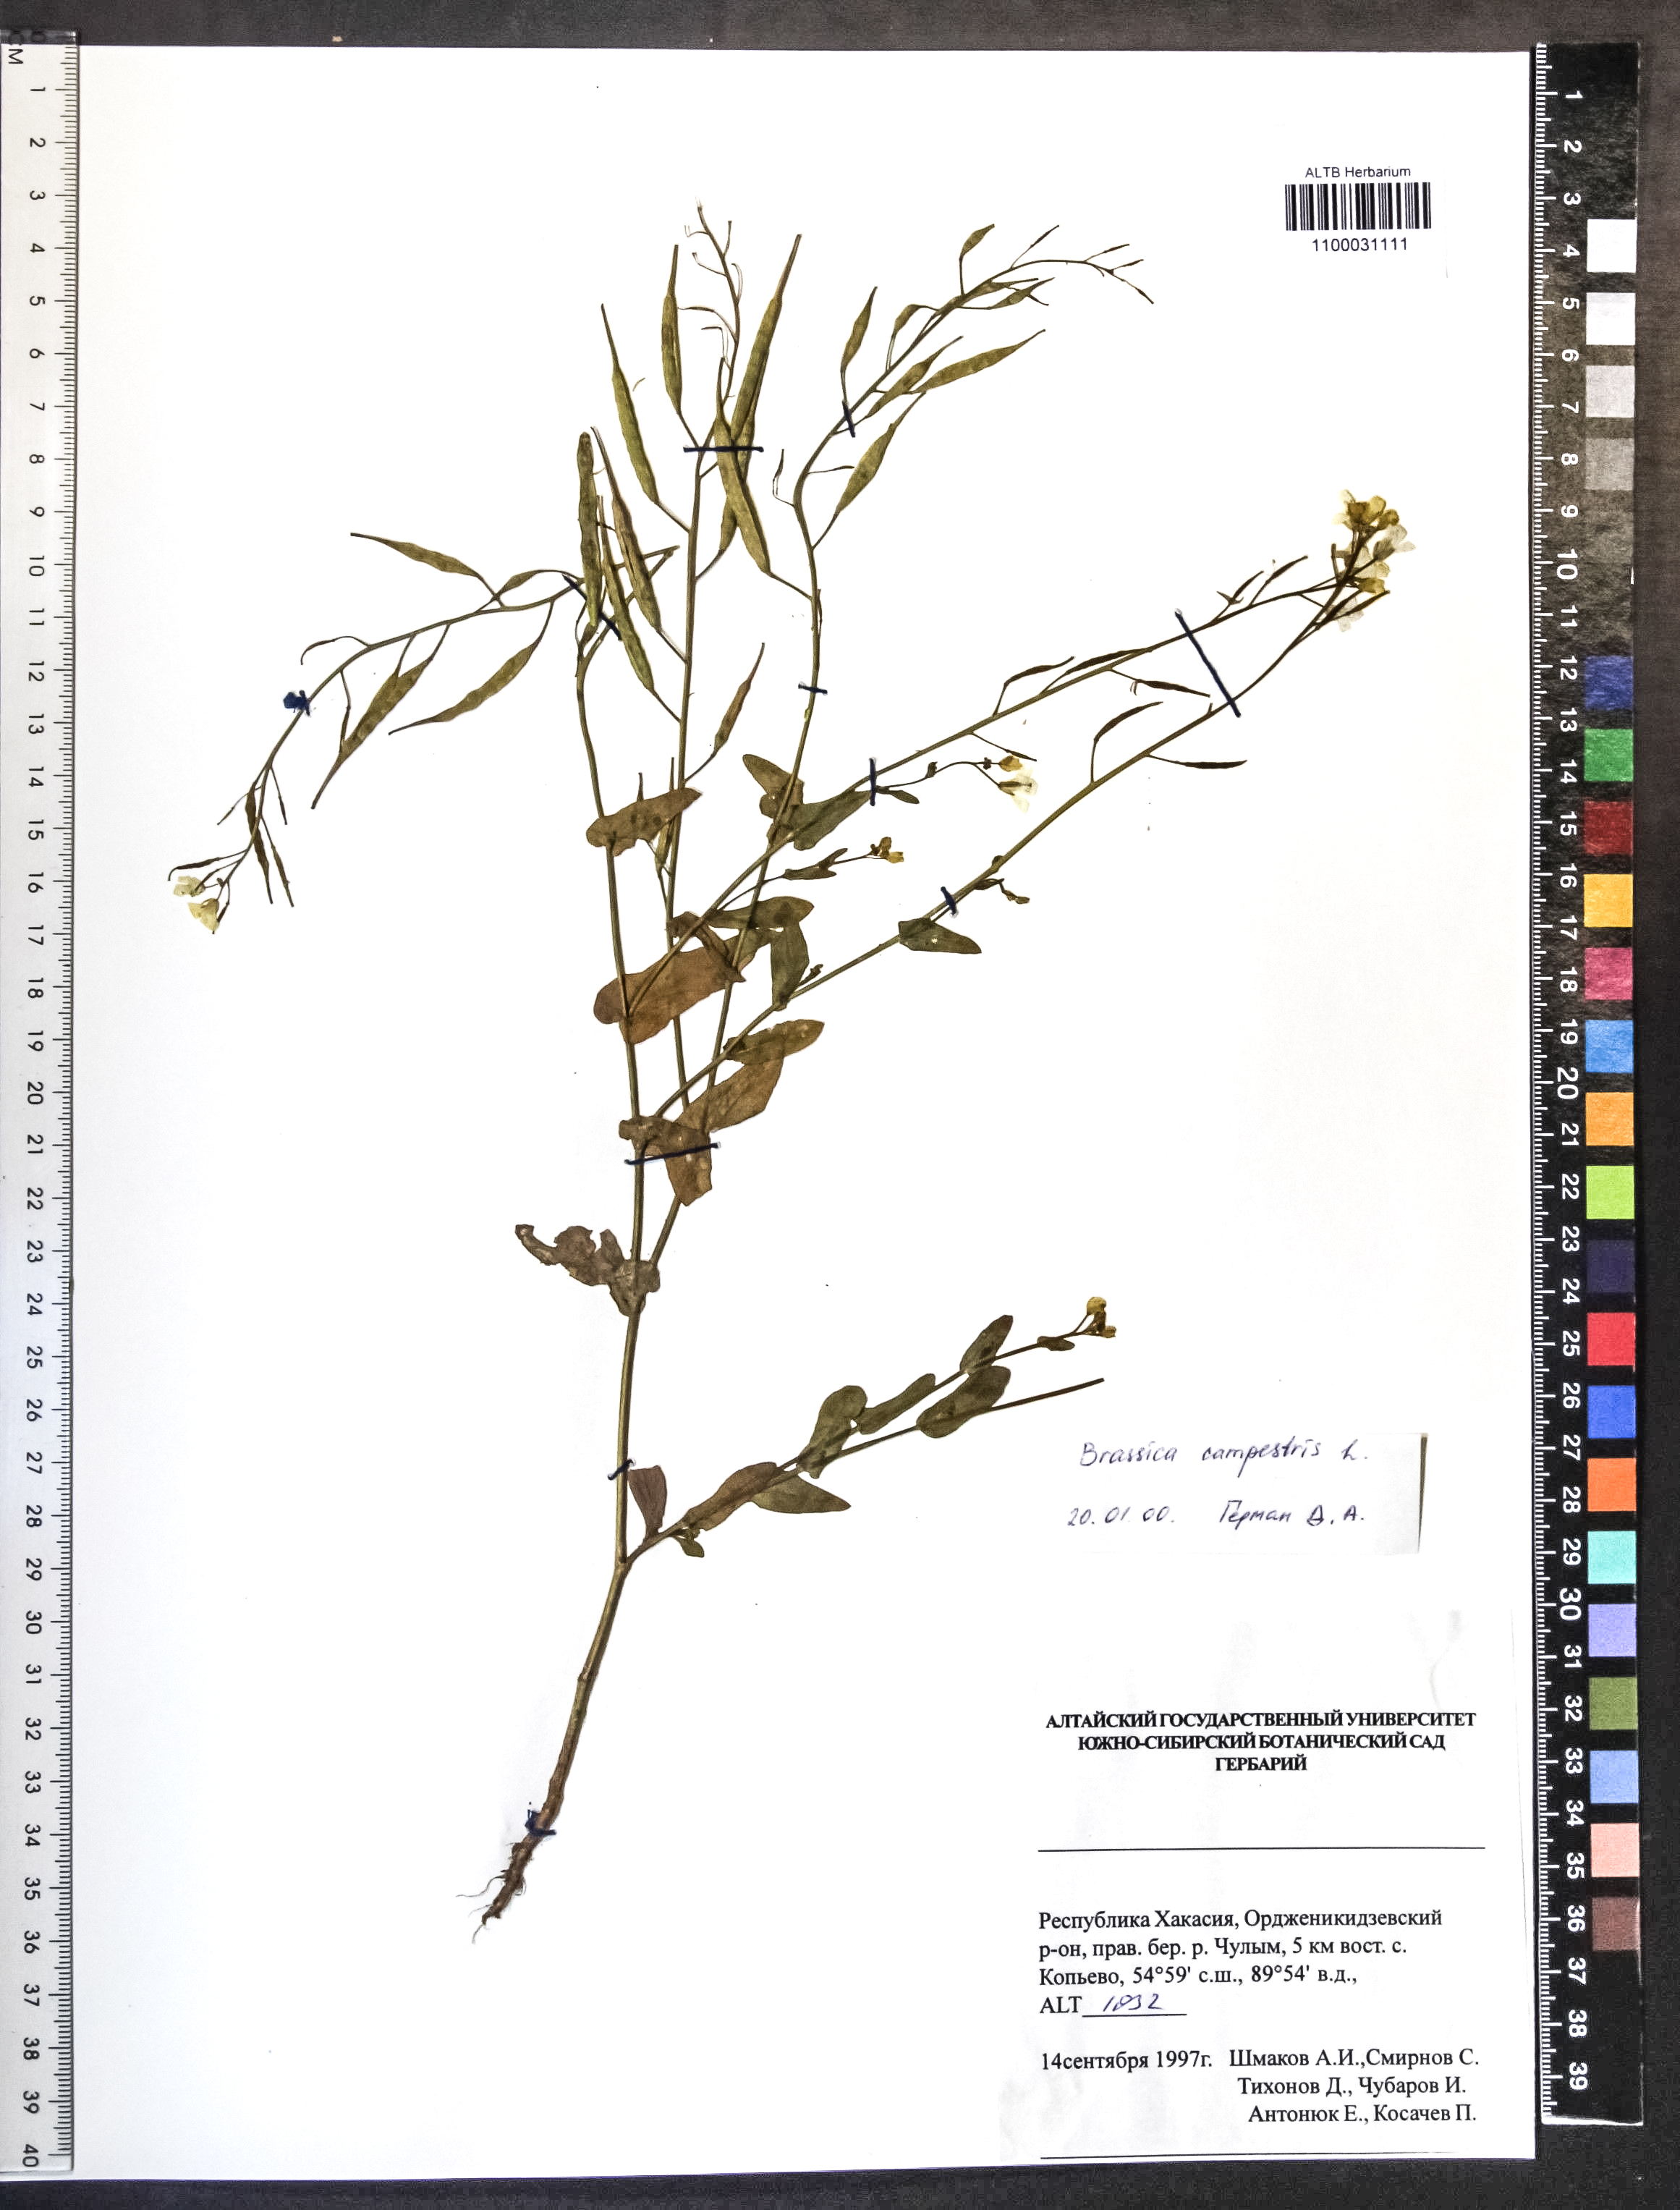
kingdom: Plantae
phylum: Tracheophyta
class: Magnoliopsida
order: Brassicales
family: Brassicaceae
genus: Brassica
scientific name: Brassica rapa
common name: Field mustard
